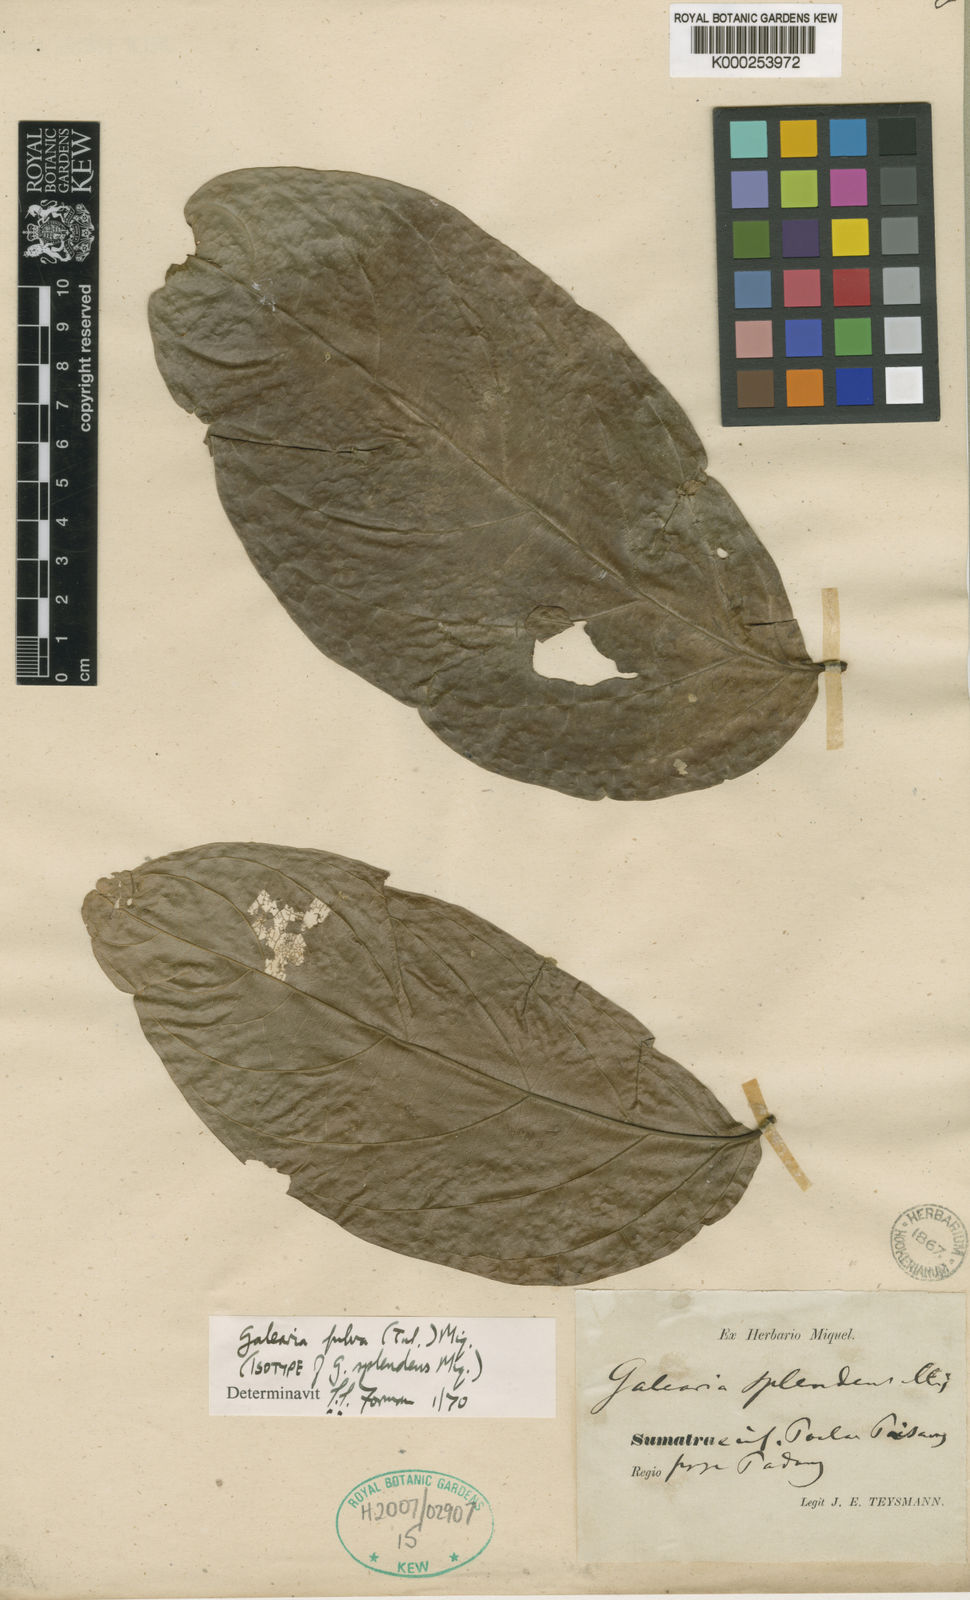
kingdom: Plantae
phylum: Tracheophyta
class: Magnoliopsida
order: Malpighiales
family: Pandaceae
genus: Galearia
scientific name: Galearia fulva
